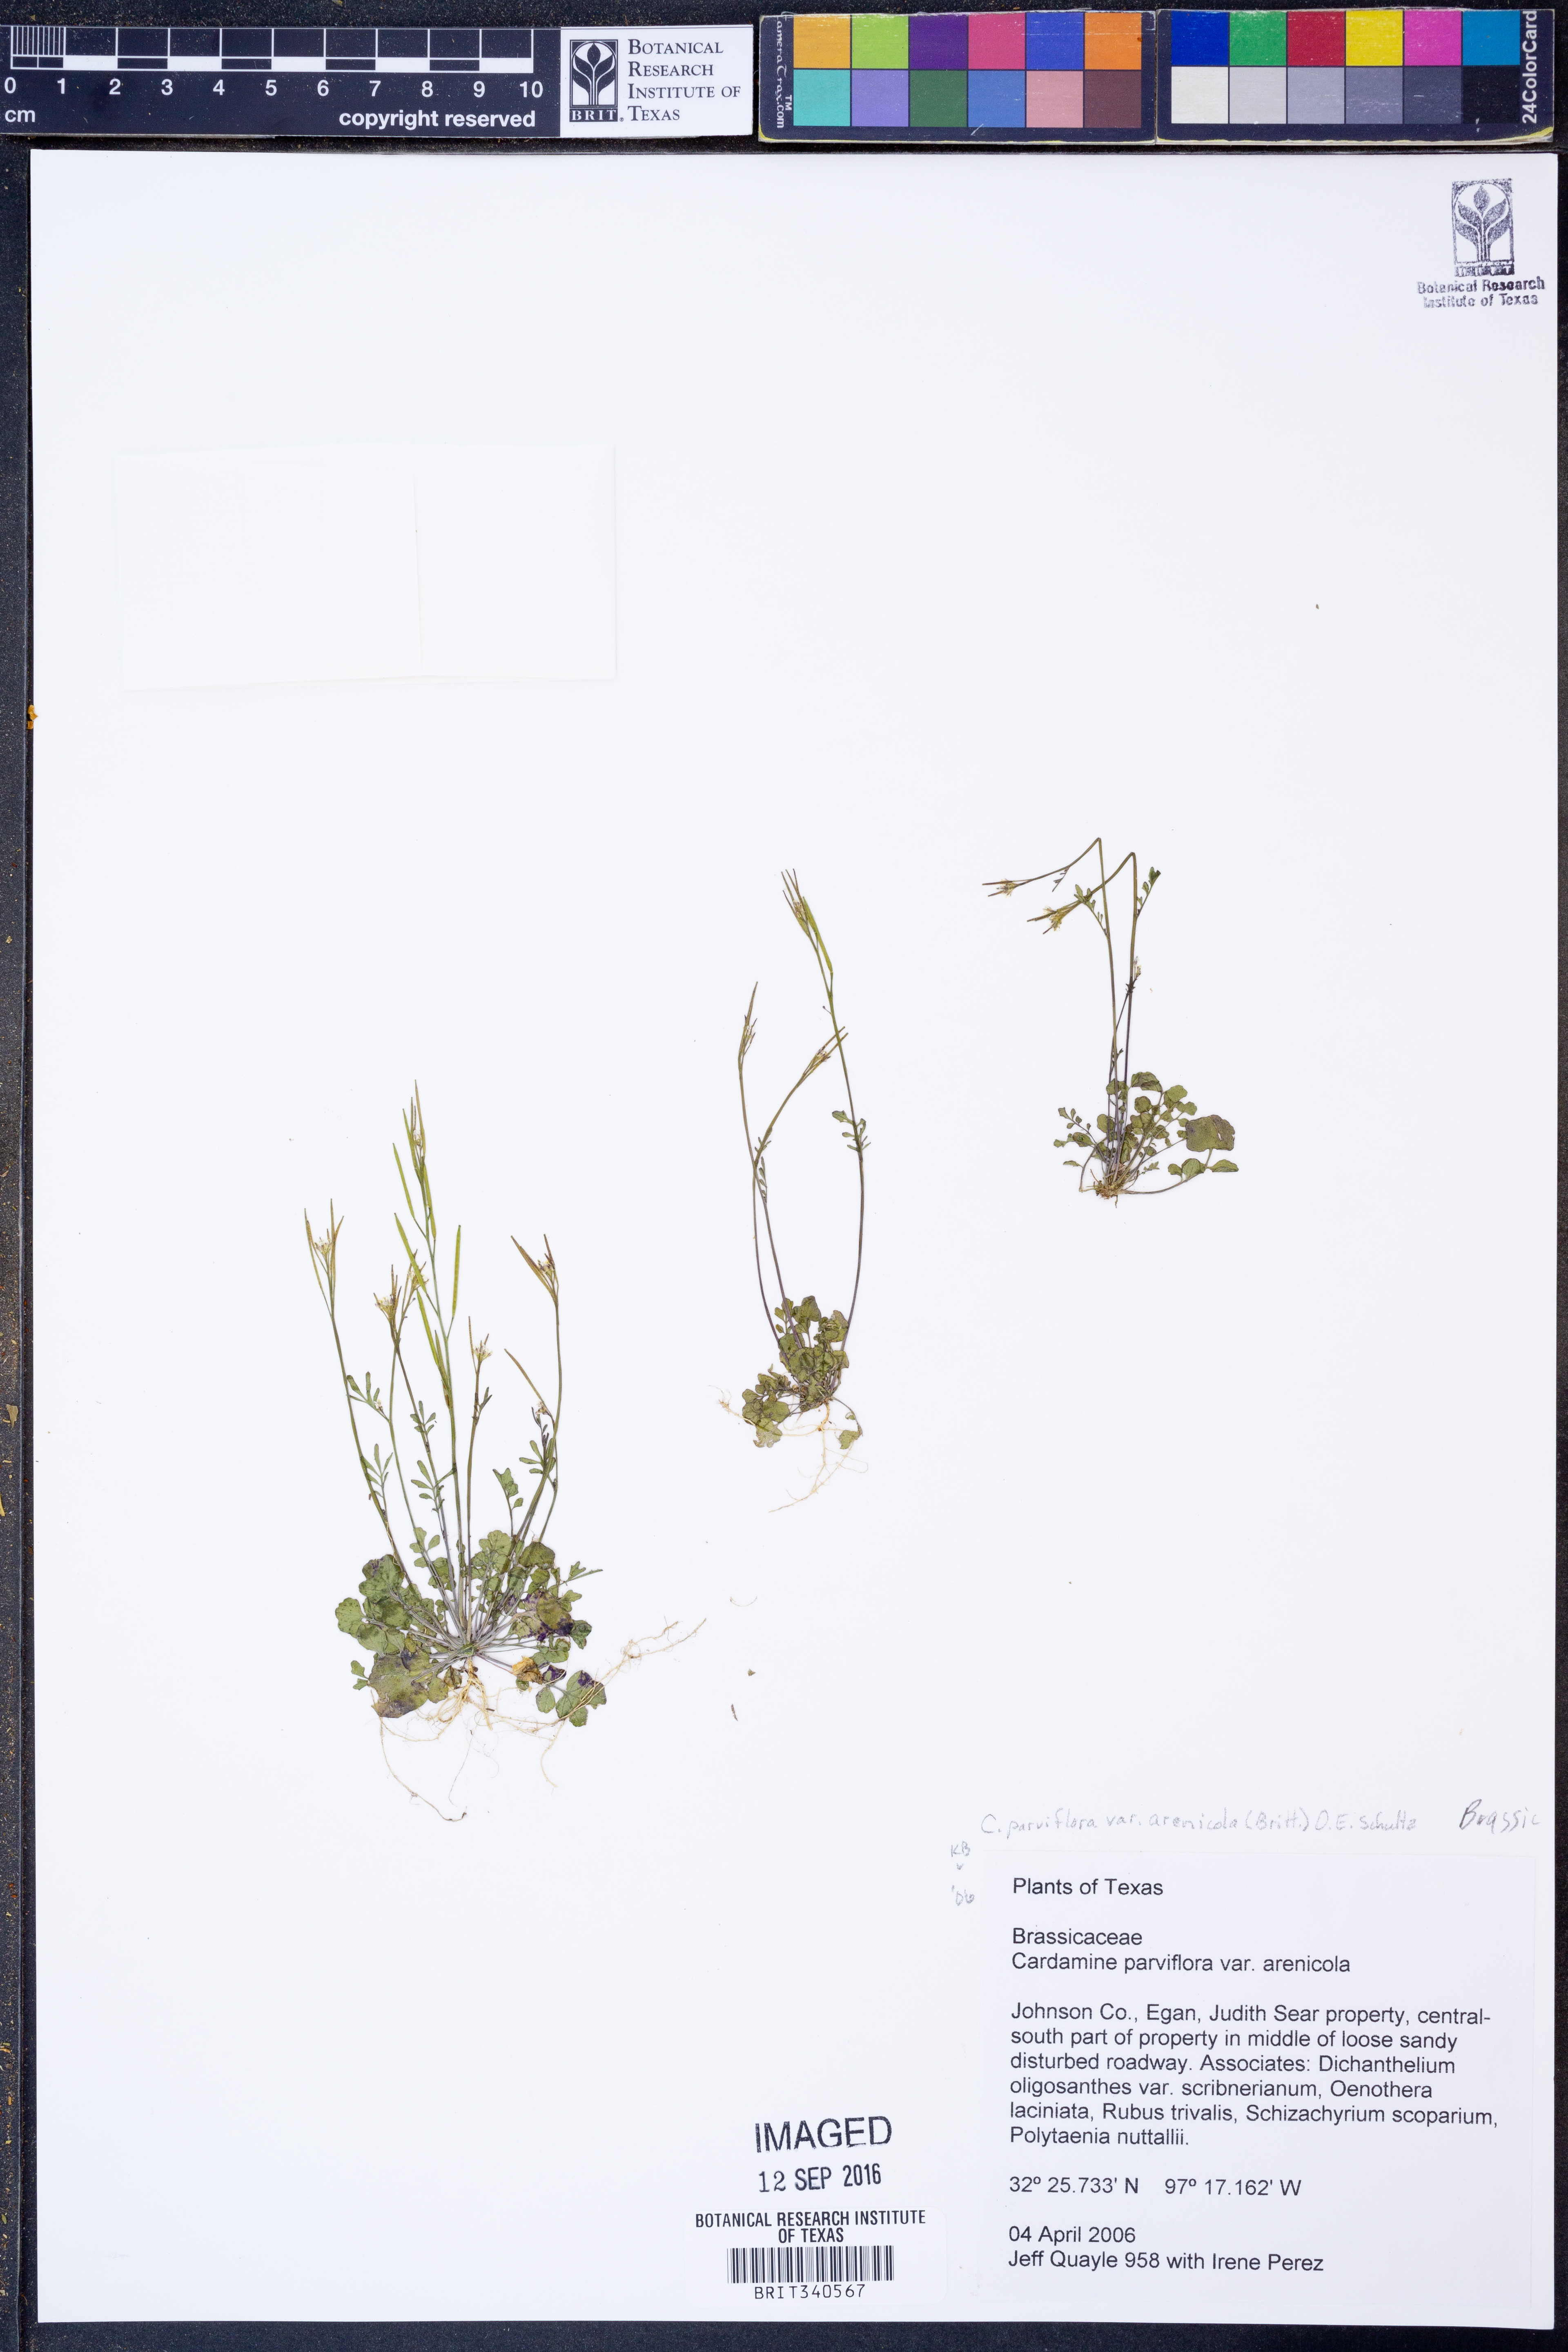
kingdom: Plantae
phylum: Tracheophyta
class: Magnoliopsida
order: Brassicales
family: Brassicaceae
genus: Cardamine
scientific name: Cardamine parviflora
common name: Sand bittercress
